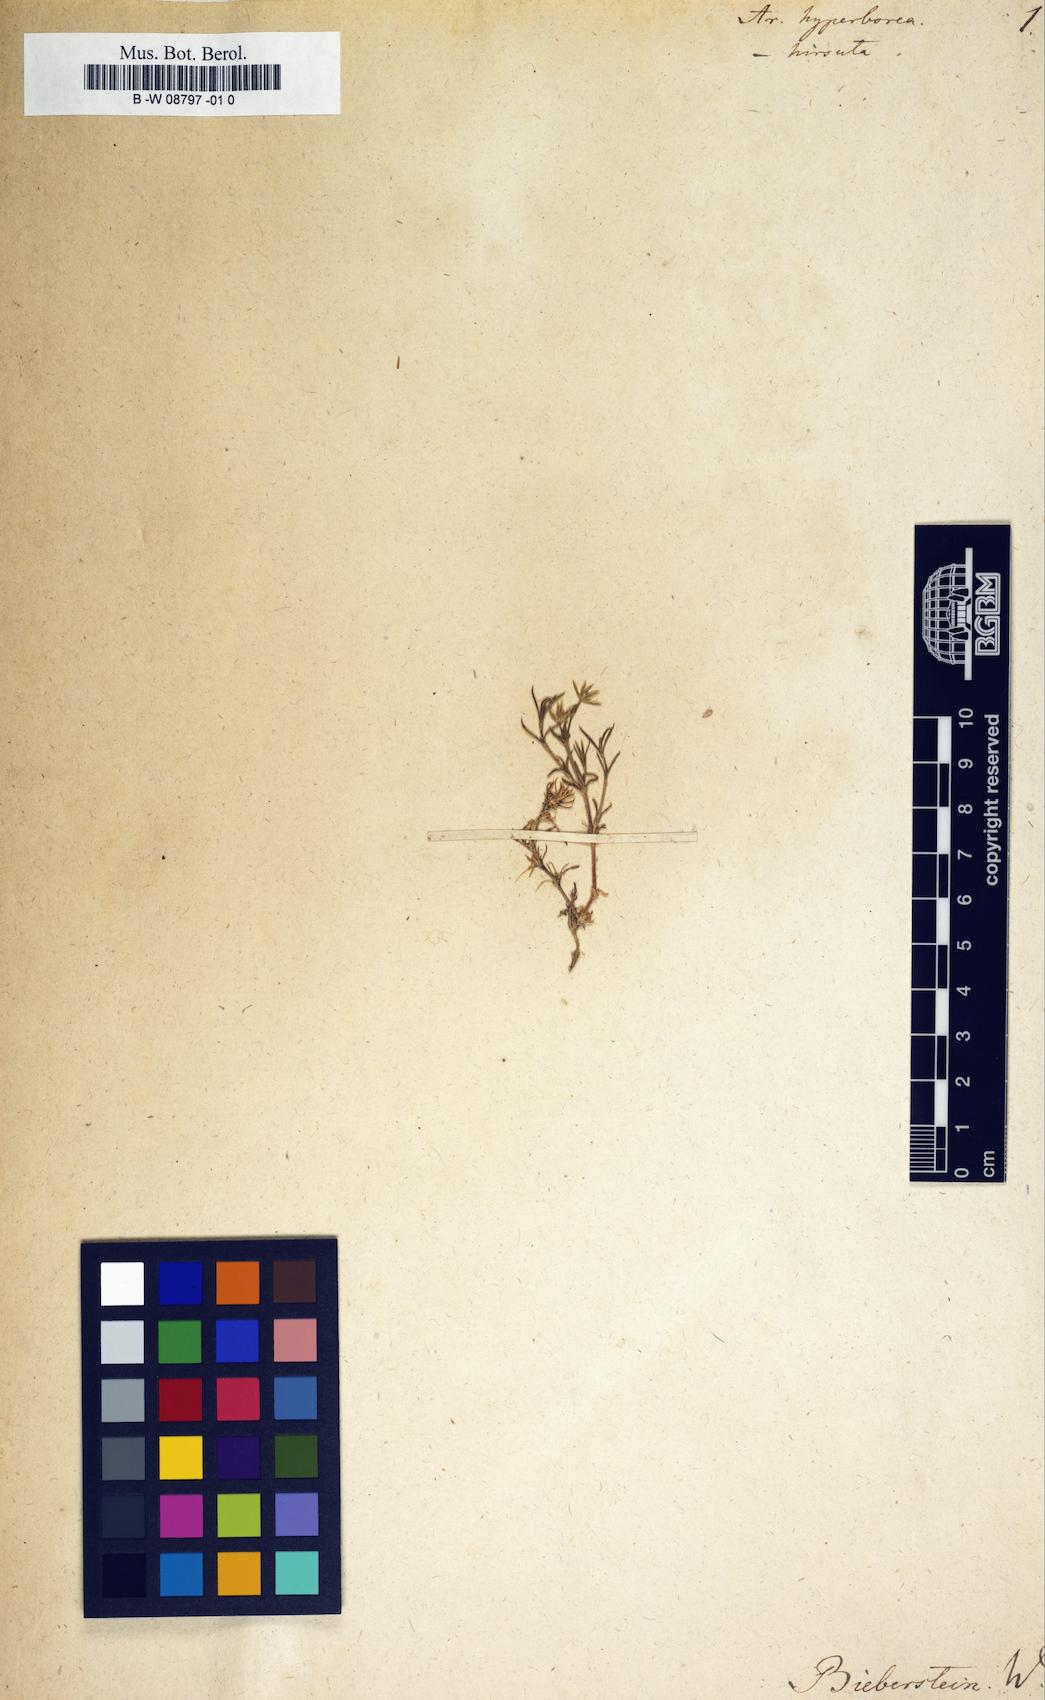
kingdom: Plantae
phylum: Tracheophyta
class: Magnoliopsida
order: Caryophyllales
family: Caryophyllaceae
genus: Arenaria
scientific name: Arenaria
